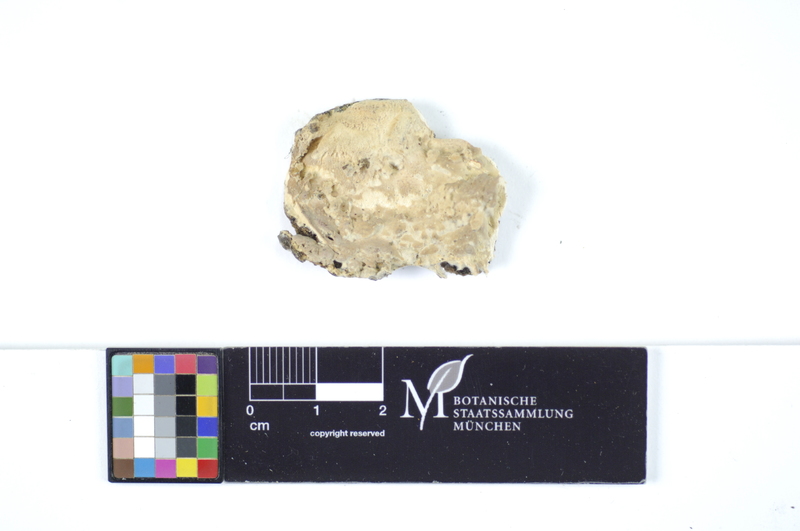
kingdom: Plantae
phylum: Tracheophyta
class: Magnoliopsida
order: Sapindales
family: Sapindaceae
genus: Acer
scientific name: Acer
